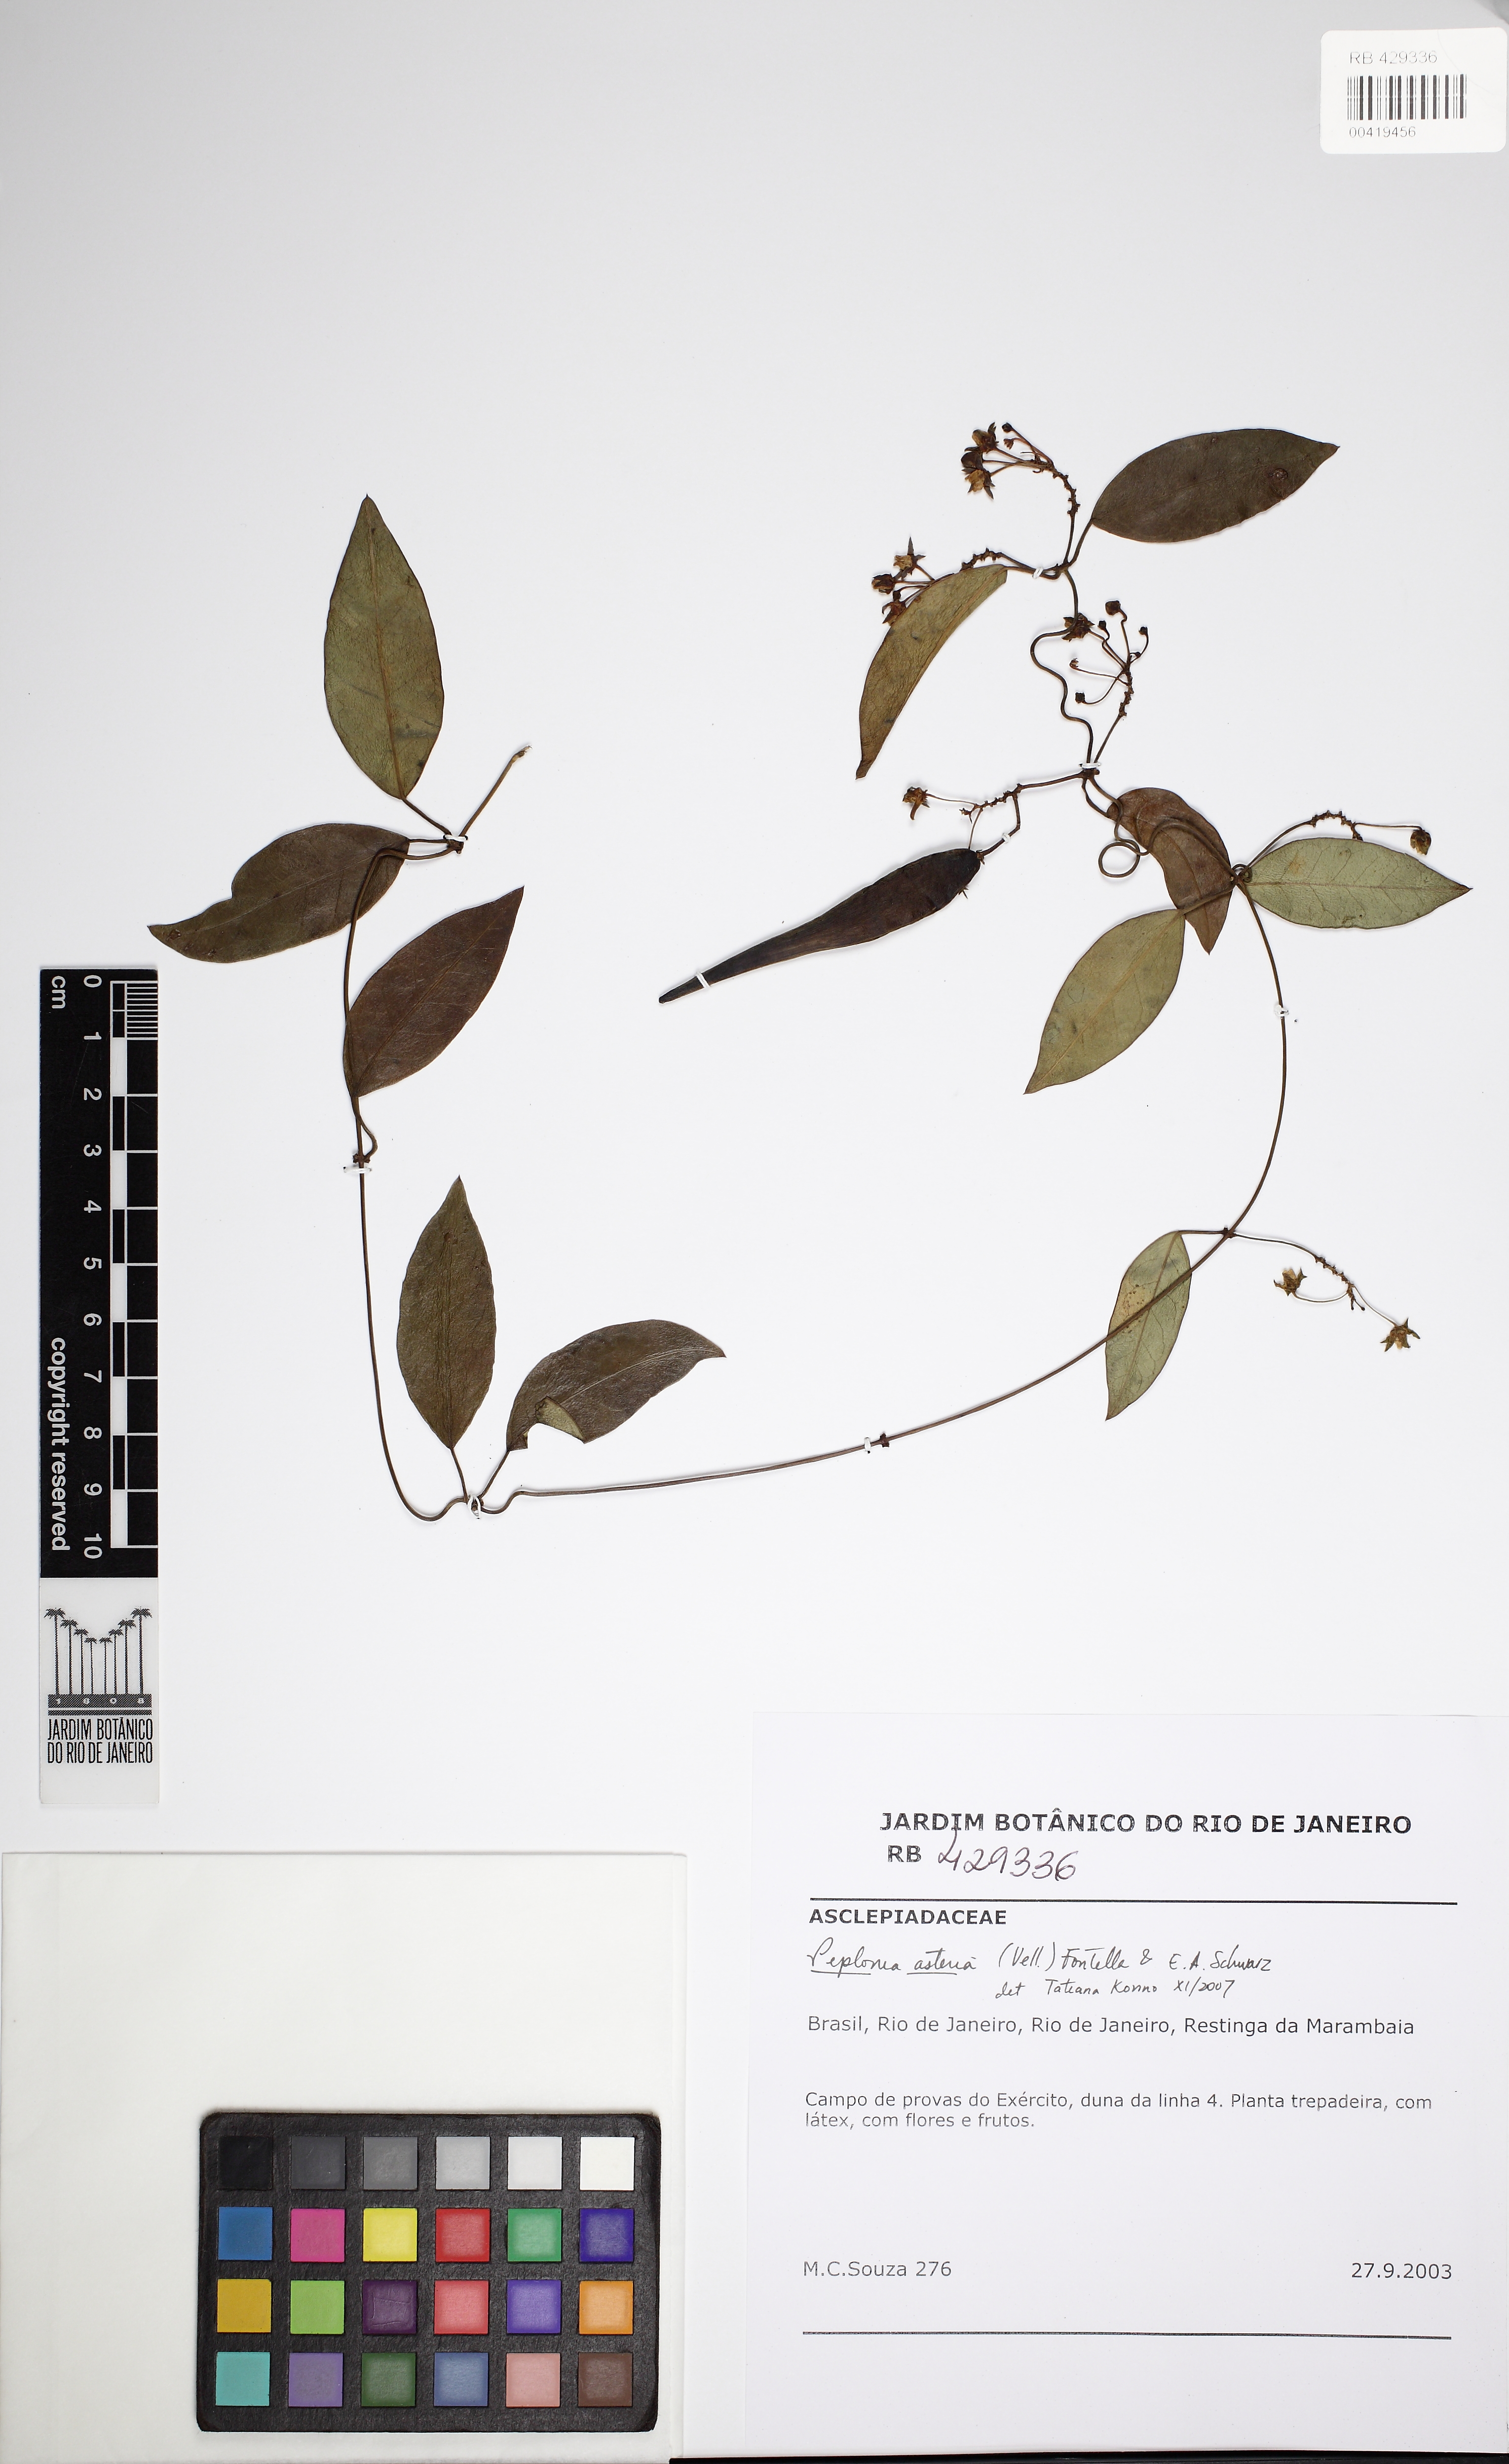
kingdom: Plantae
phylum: Tracheophyta
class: Magnoliopsida
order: Gentianales
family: Apocynaceae
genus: Peplonia
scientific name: Peplonia asteria
